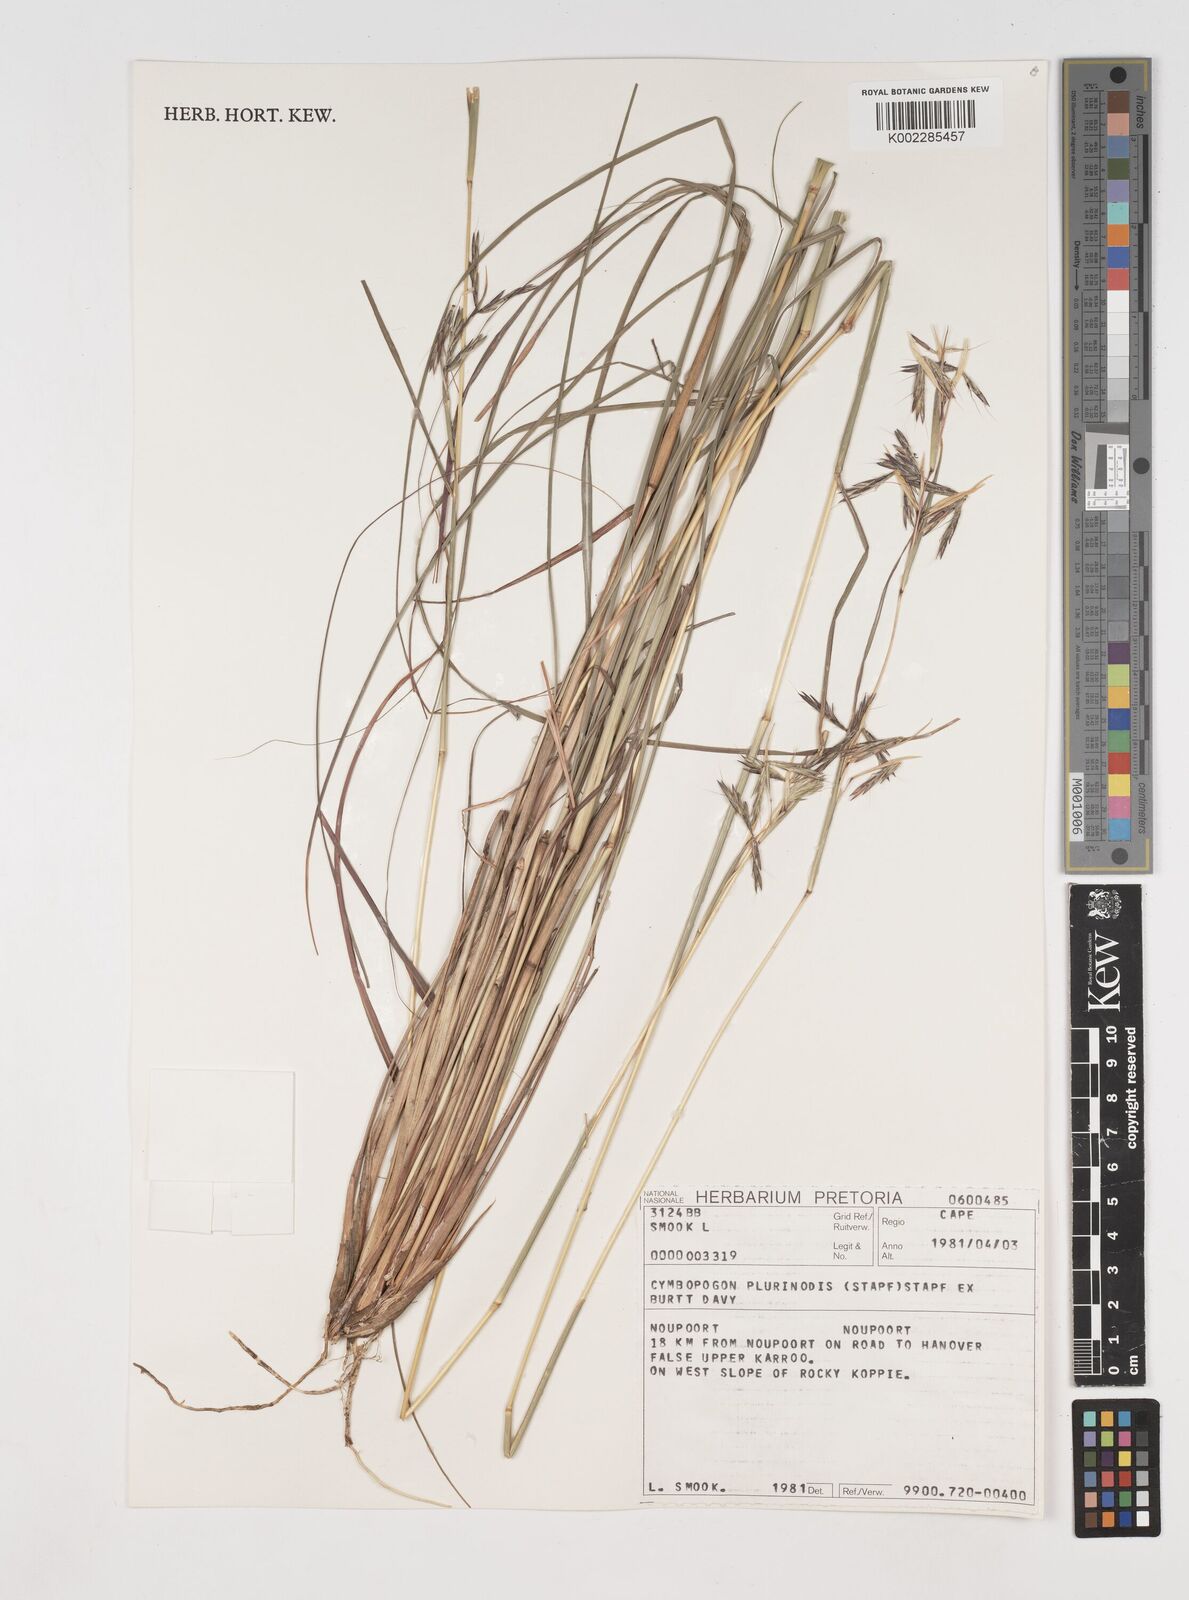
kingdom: Plantae
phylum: Tracheophyta
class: Liliopsida
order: Poales
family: Poaceae
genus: Cymbopogon
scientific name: Cymbopogon pospischilii
